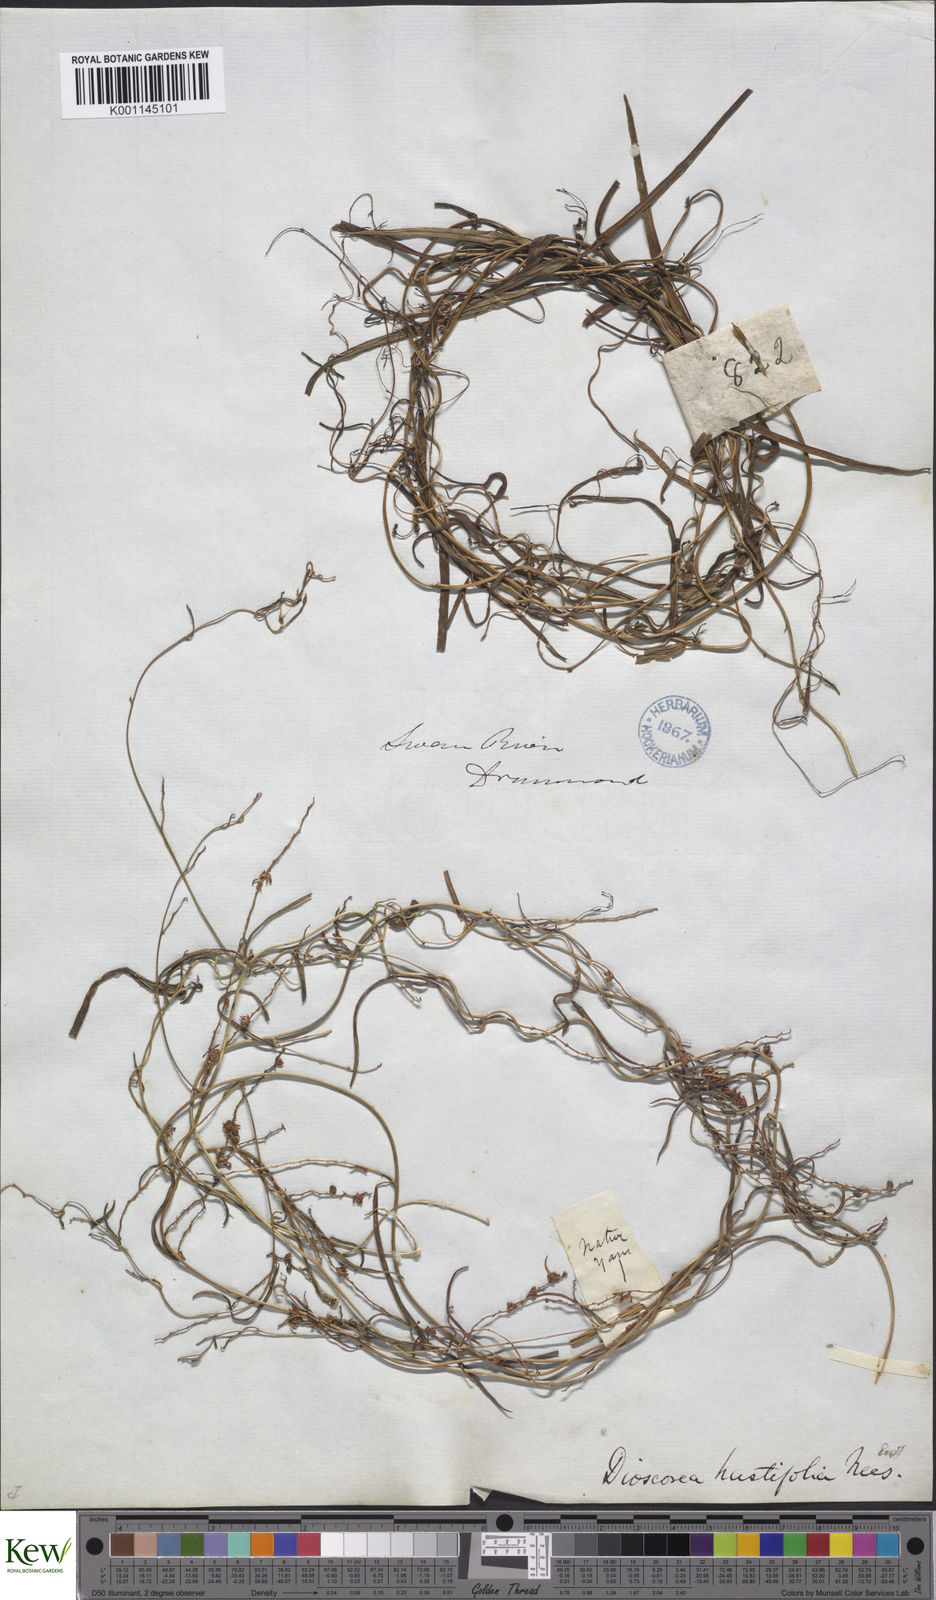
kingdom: Plantae
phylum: Tracheophyta
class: Liliopsida
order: Dioscoreales
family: Dioscoreaceae
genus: Dioscorea
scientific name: Dioscorea hastifolia
